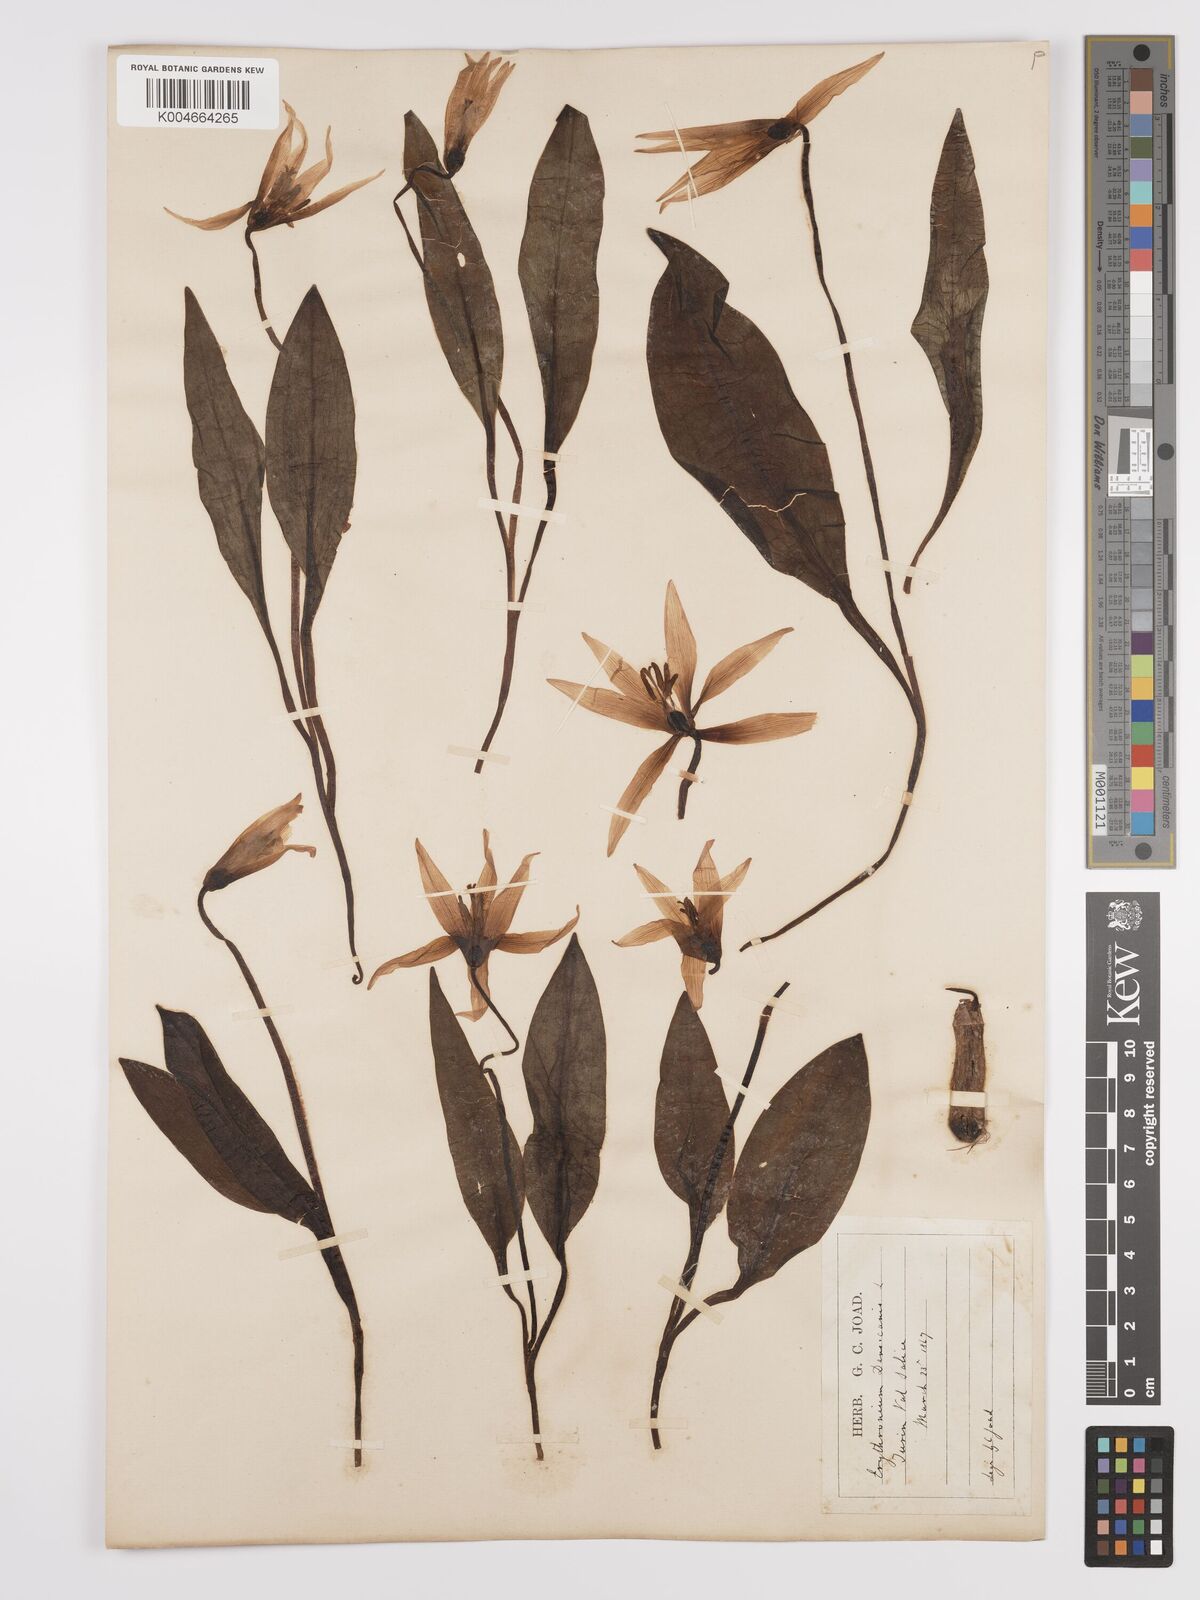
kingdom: Plantae
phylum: Tracheophyta
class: Liliopsida
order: Liliales
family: Liliaceae
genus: Erythronium
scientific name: Erythronium dens-canis
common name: Dog's-tooth-violet
